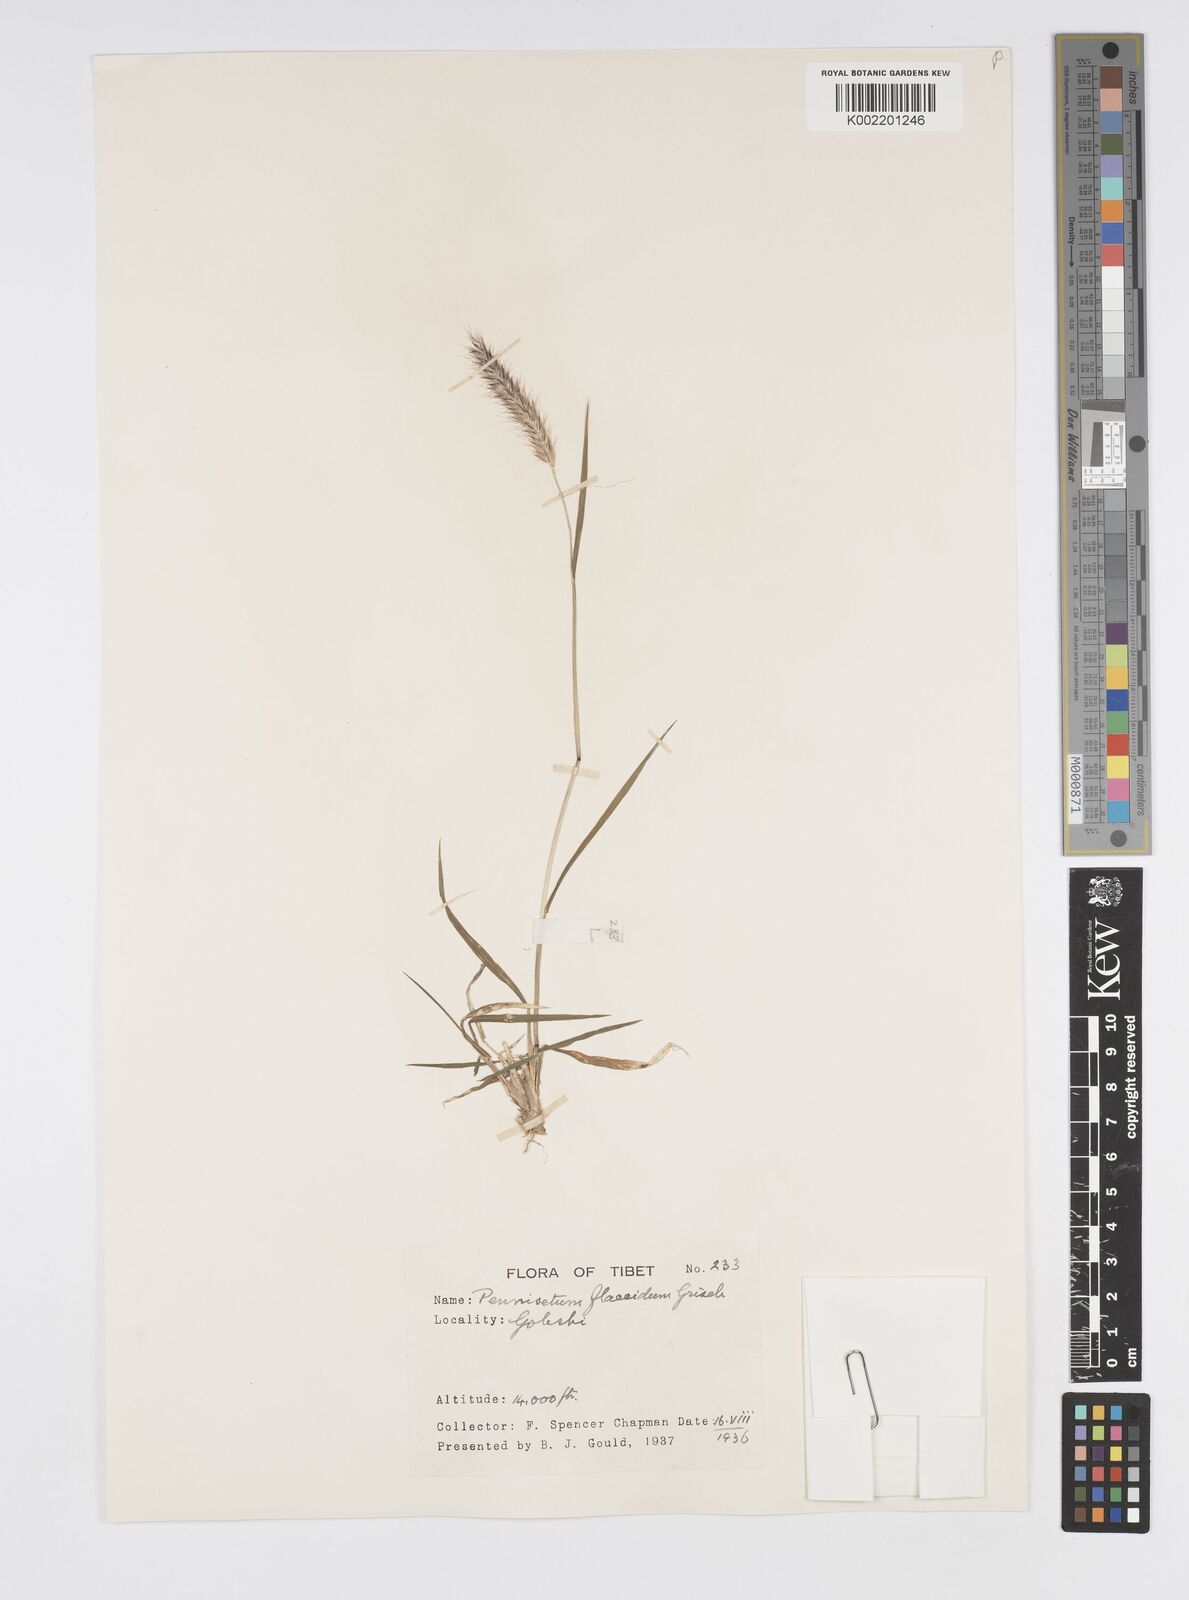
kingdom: Plantae
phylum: Tracheophyta
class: Liliopsida
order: Poales
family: Poaceae
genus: Cenchrus
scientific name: Cenchrus flaccidus
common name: Flaccid grass
